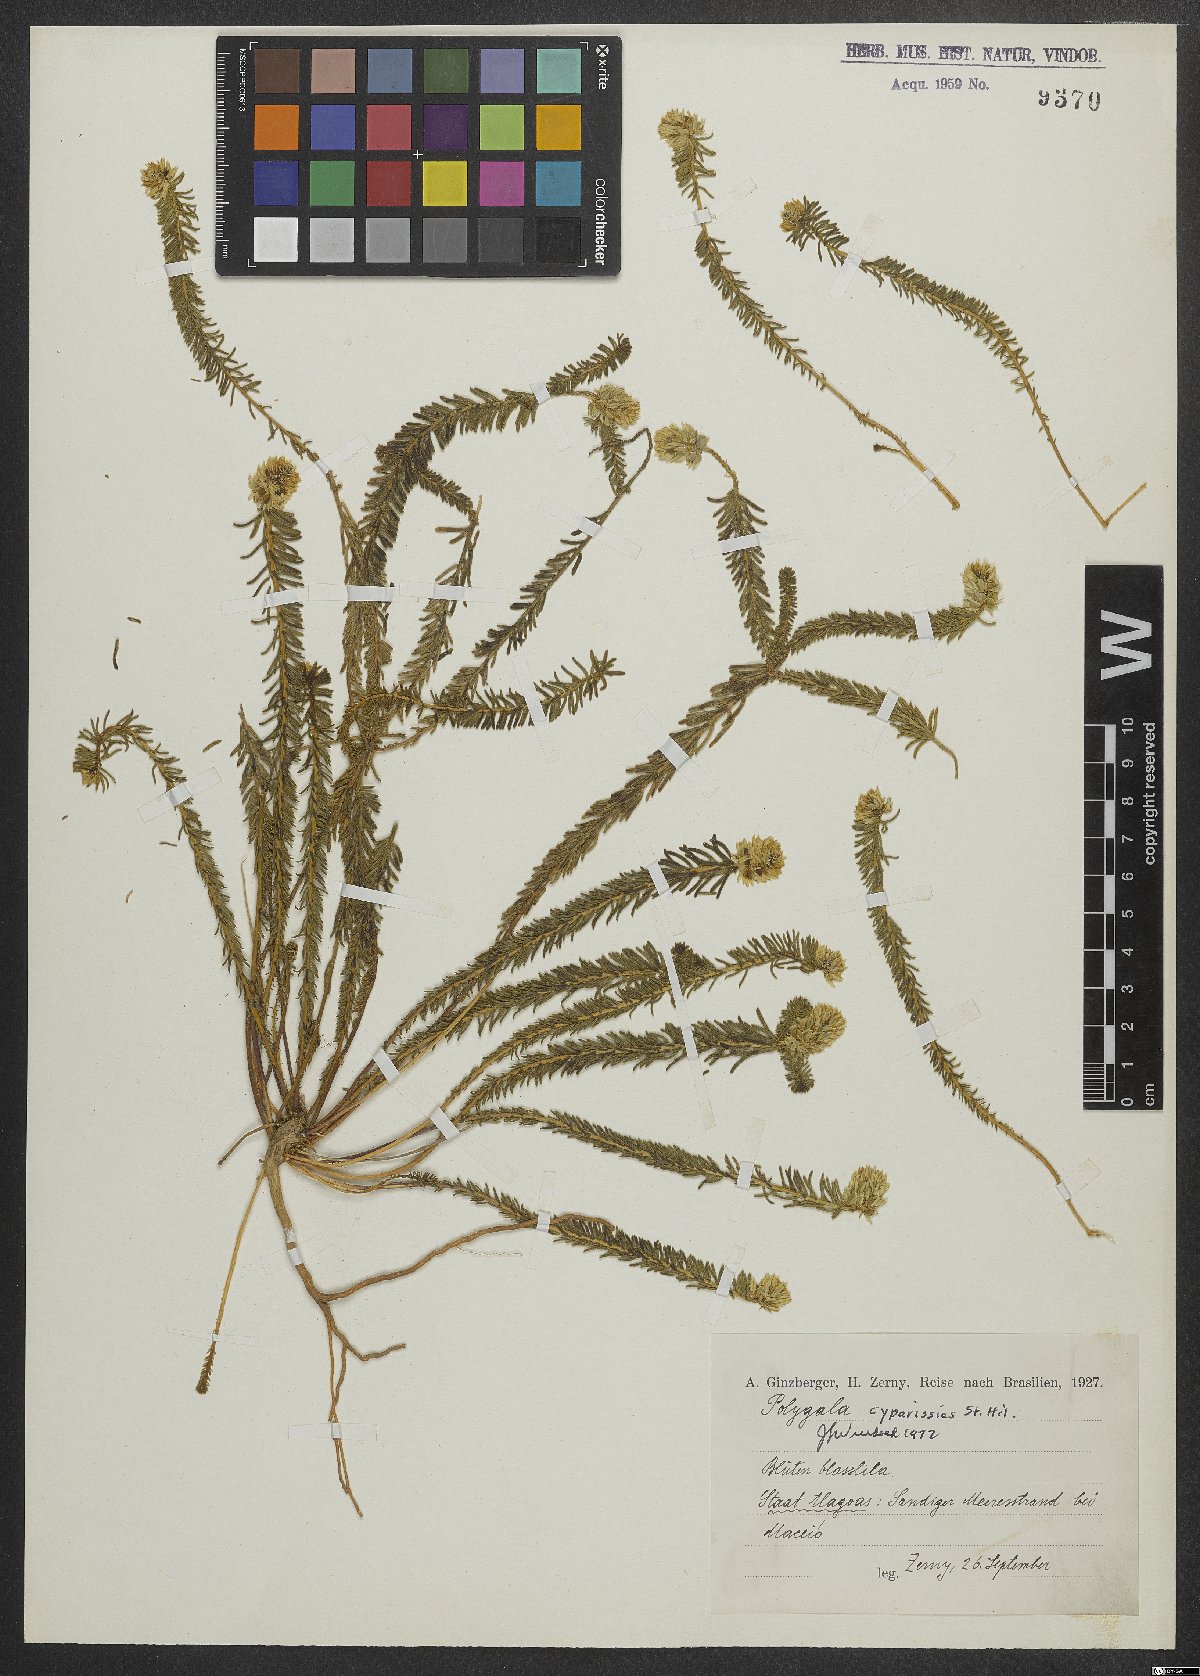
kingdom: Plantae
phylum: Tracheophyta
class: Magnoliopsida
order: Fabales
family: Polygalaceae
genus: Polygala
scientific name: Polygala cyparissias
